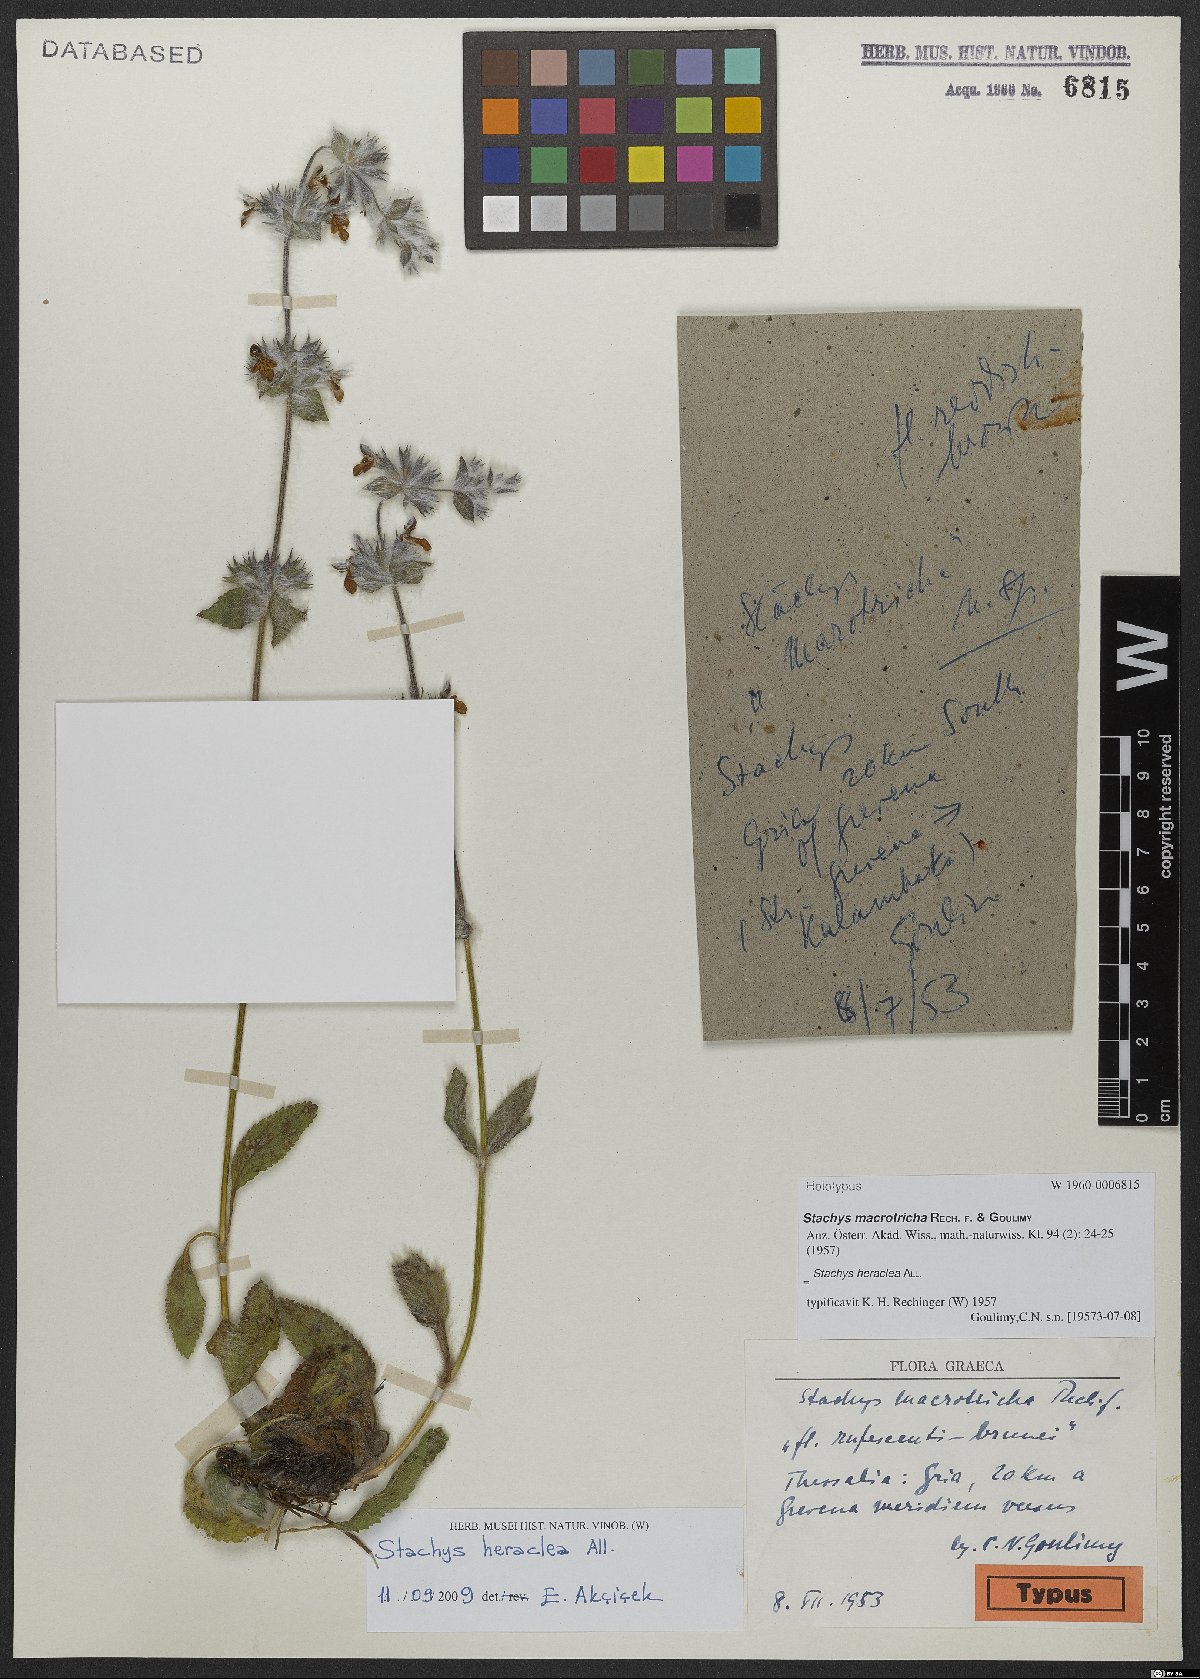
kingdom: Plantae
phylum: Tracheophyta
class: Magnoliopsida
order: Lamiales
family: Lamiaceae
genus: Stachys
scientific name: Stachys heraclea
